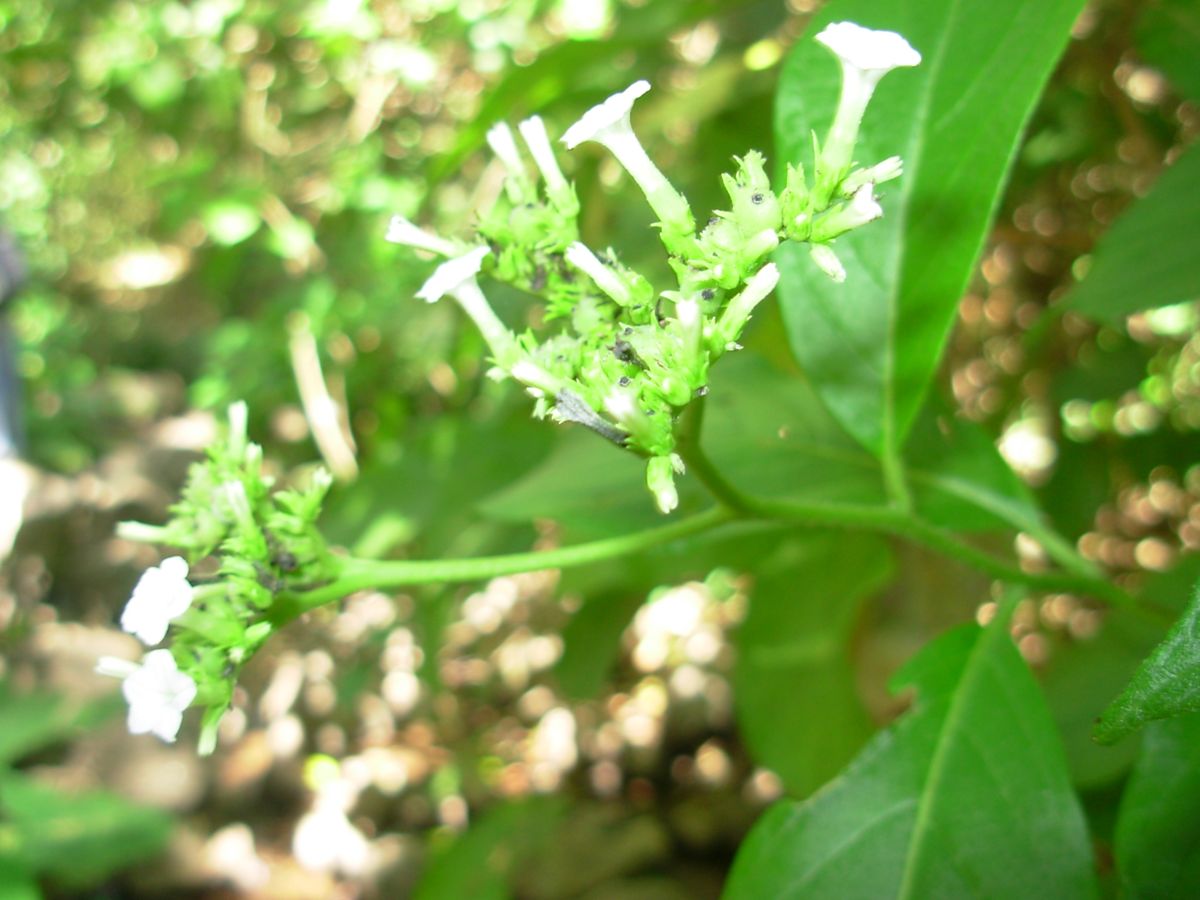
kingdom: Plantae
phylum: Tracheophyta
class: Magnoliopsida
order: Boraginales
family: Heliotropiaceae
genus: Heliotropium
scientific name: Heliotropium verdcourtii
